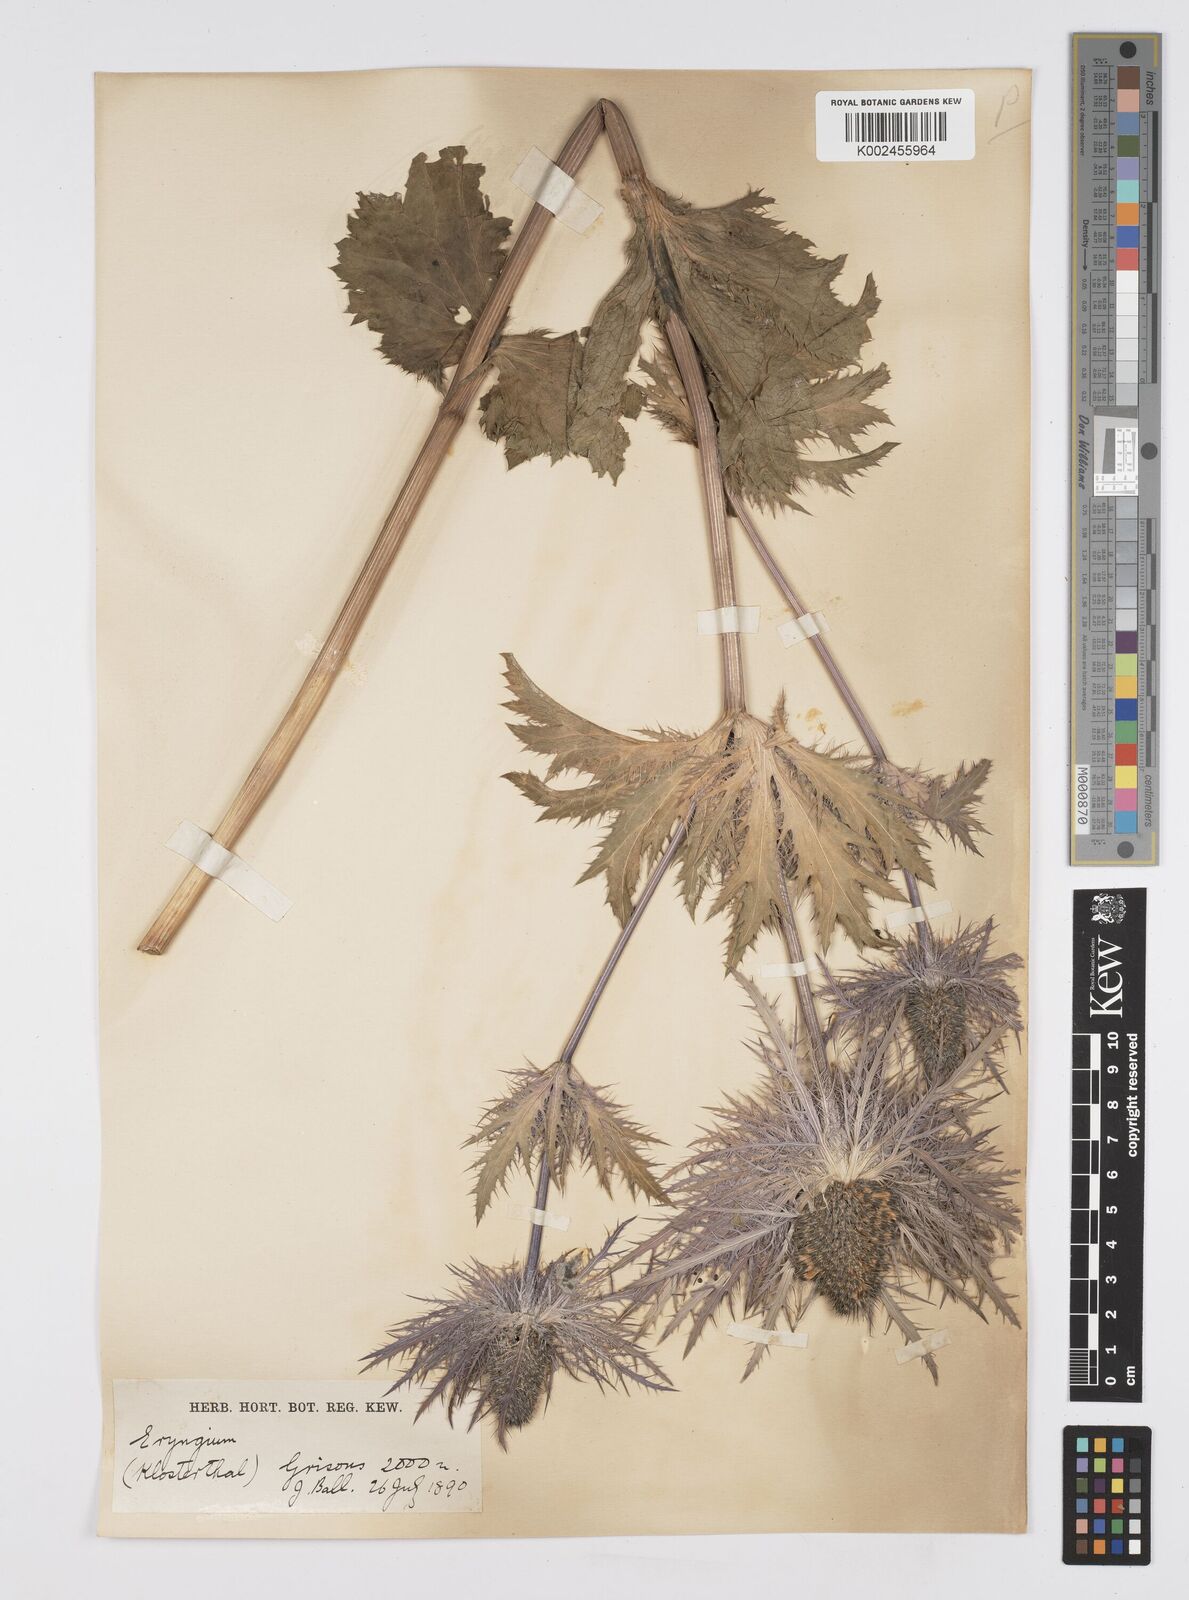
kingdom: Plantae
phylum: Tracheophyta
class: Magnoliopsida
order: Apiales
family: Apiaceae
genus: Eryngium
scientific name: Eryngium alpinum
